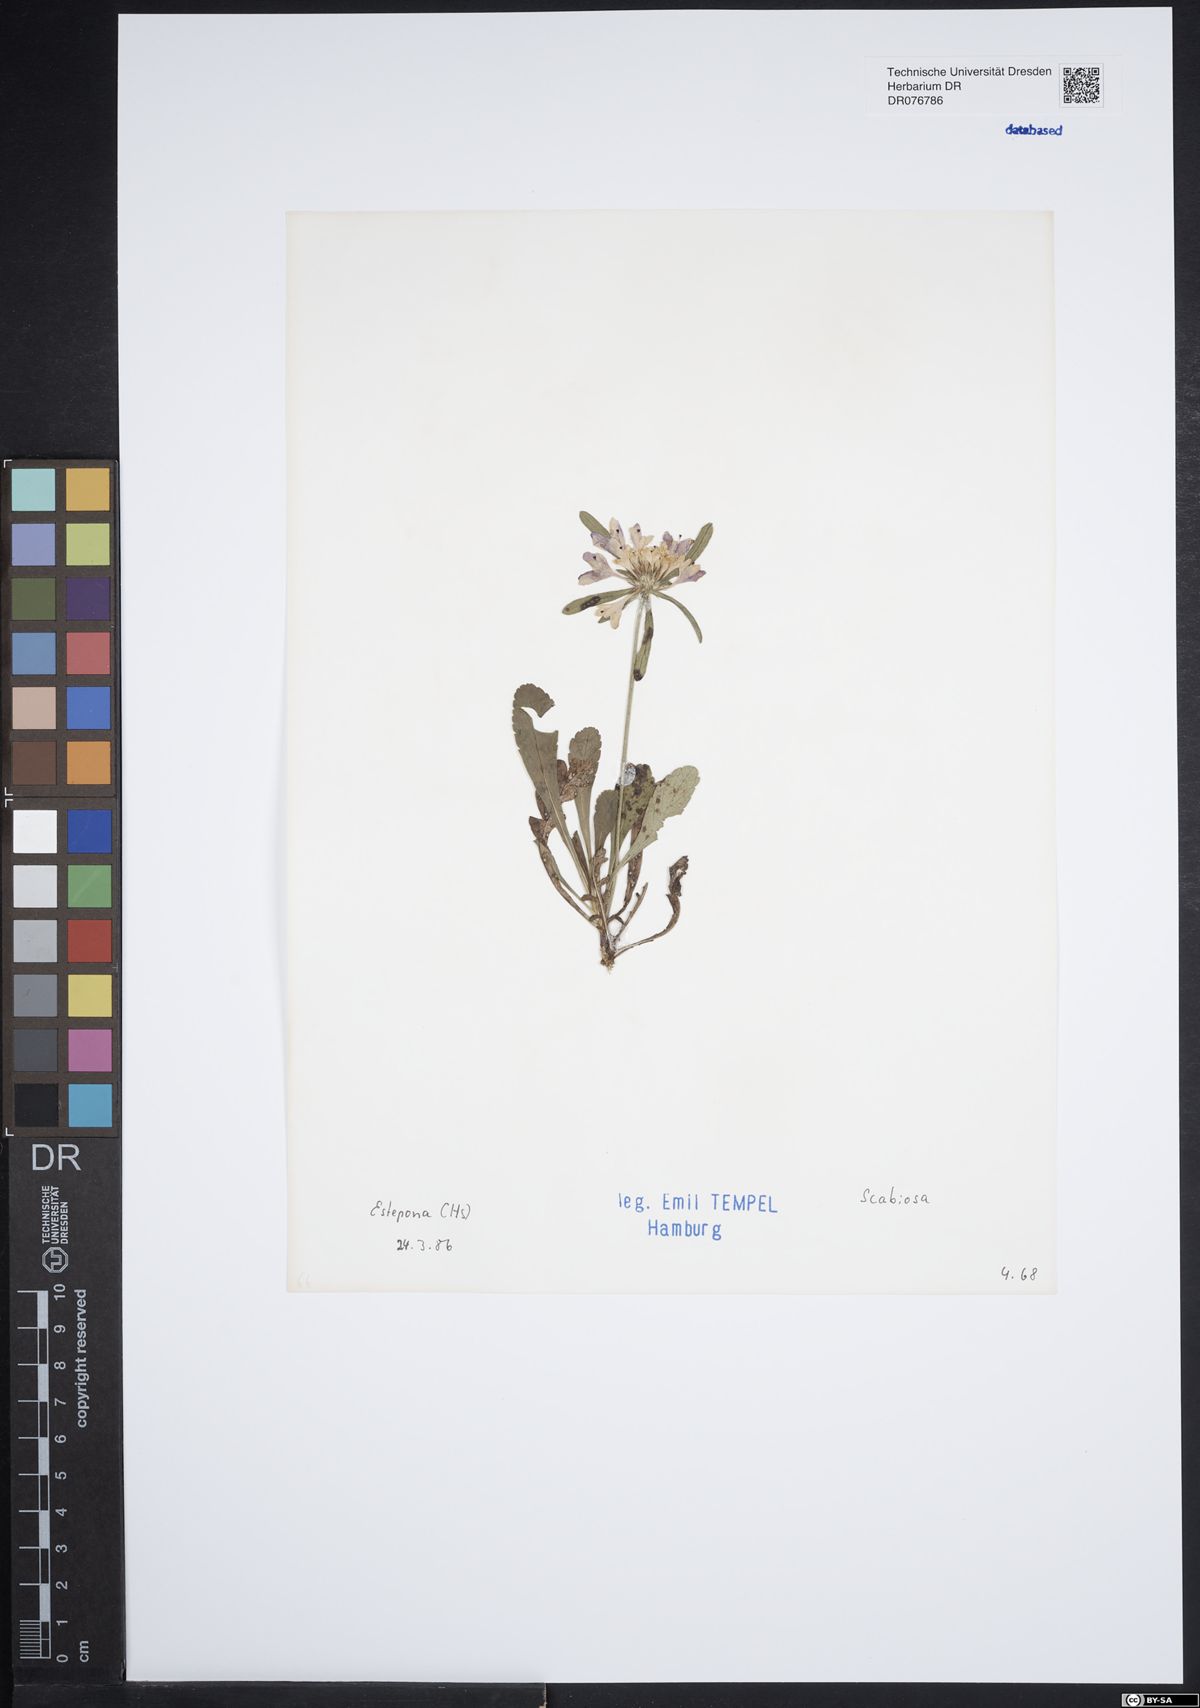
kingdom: Plantae
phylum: Tracheophyta
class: Magnoliopsida
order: Dipsacales
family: Caprifoliaceae
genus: Scabiosa
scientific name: Scabiosa
